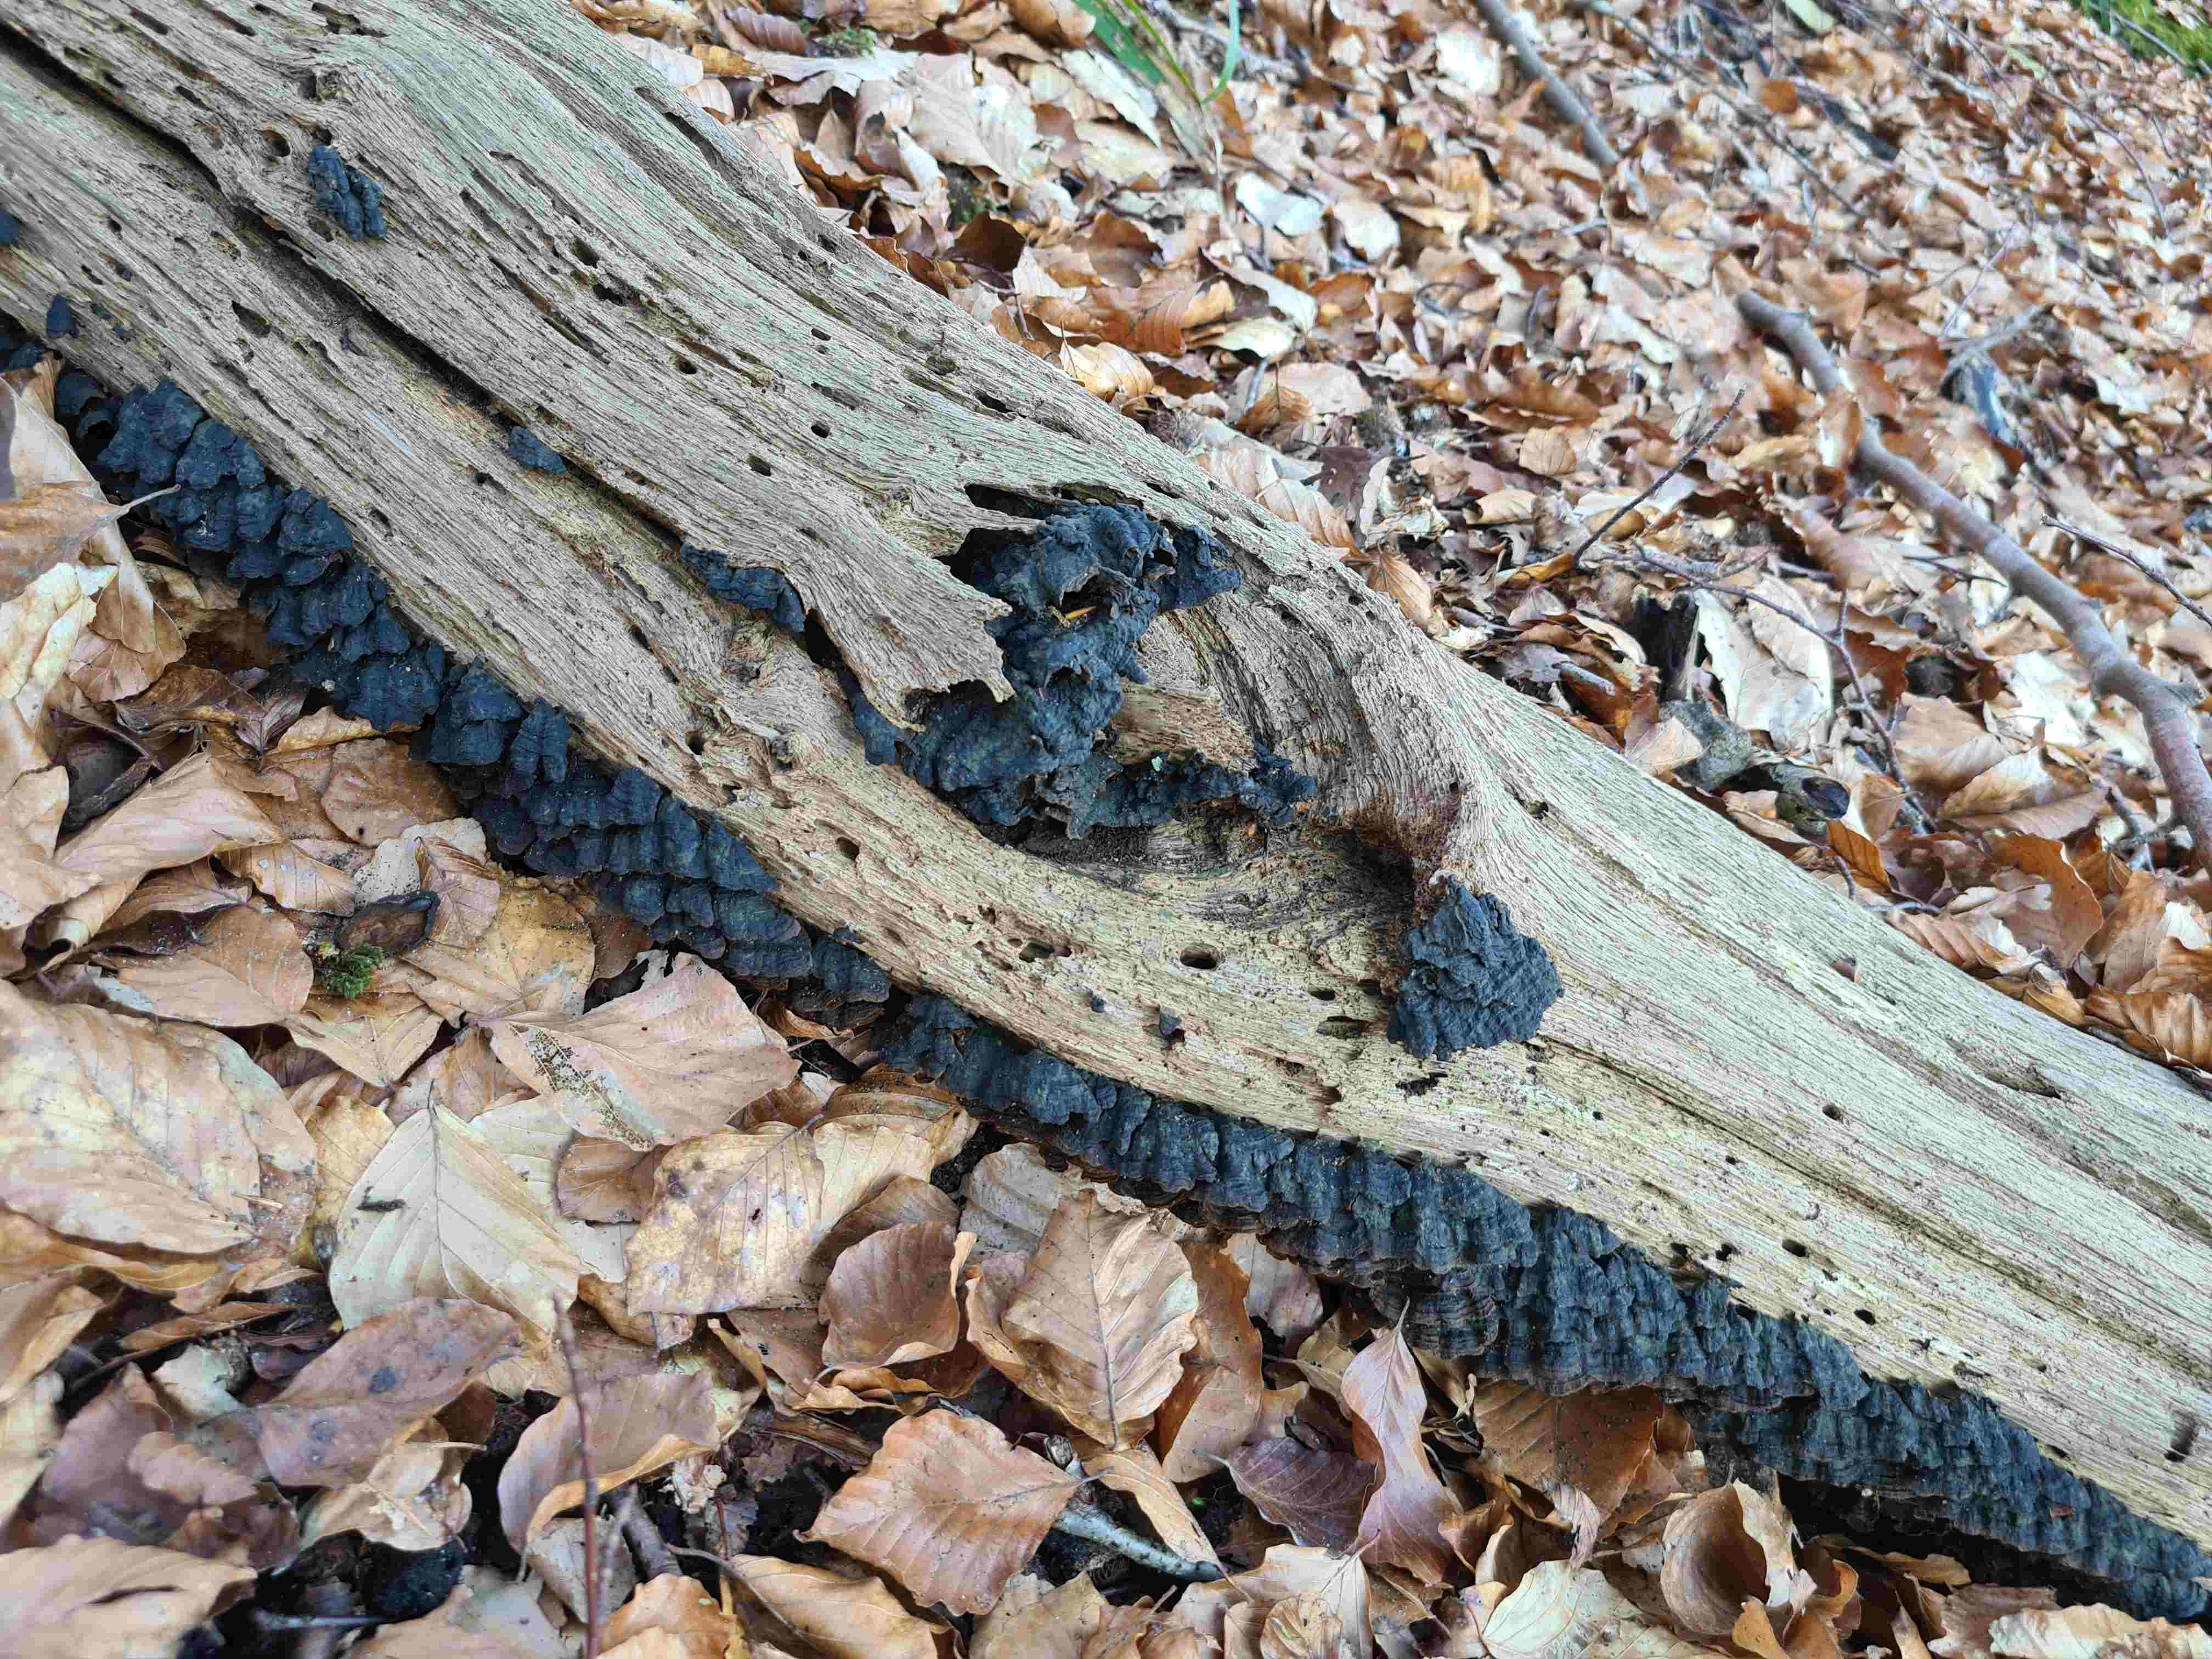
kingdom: Fungi
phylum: Basidiomycota
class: Agaricomycetes
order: Hymenochaetales
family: Hymenochaetaceae
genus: Hymenochaete
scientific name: Hymenochaete rubiginosa
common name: stiv ruslædersvamp
